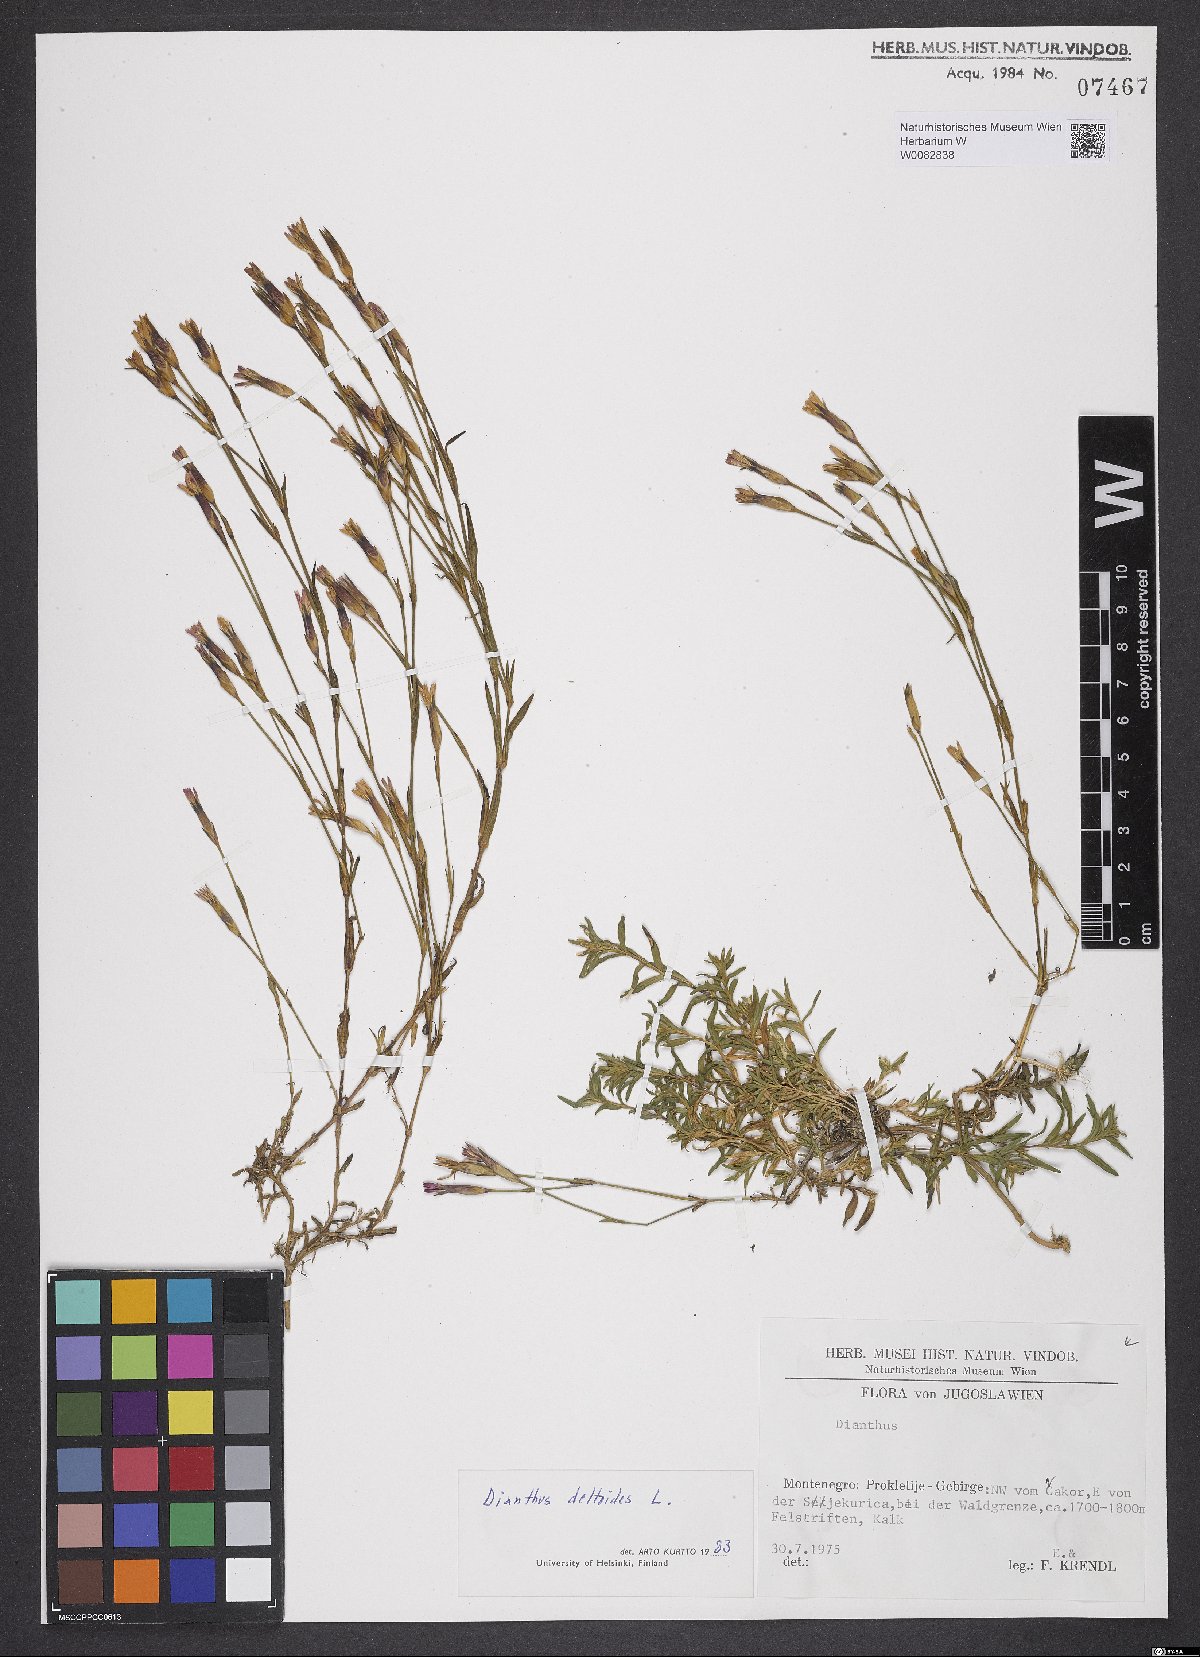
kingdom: Plantae
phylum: Tracheophyta
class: Magnoliopsida
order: Caryophyllales
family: Caryophyllaceae
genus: Dianthus
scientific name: Dianthus deltoides
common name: Maiden pink
